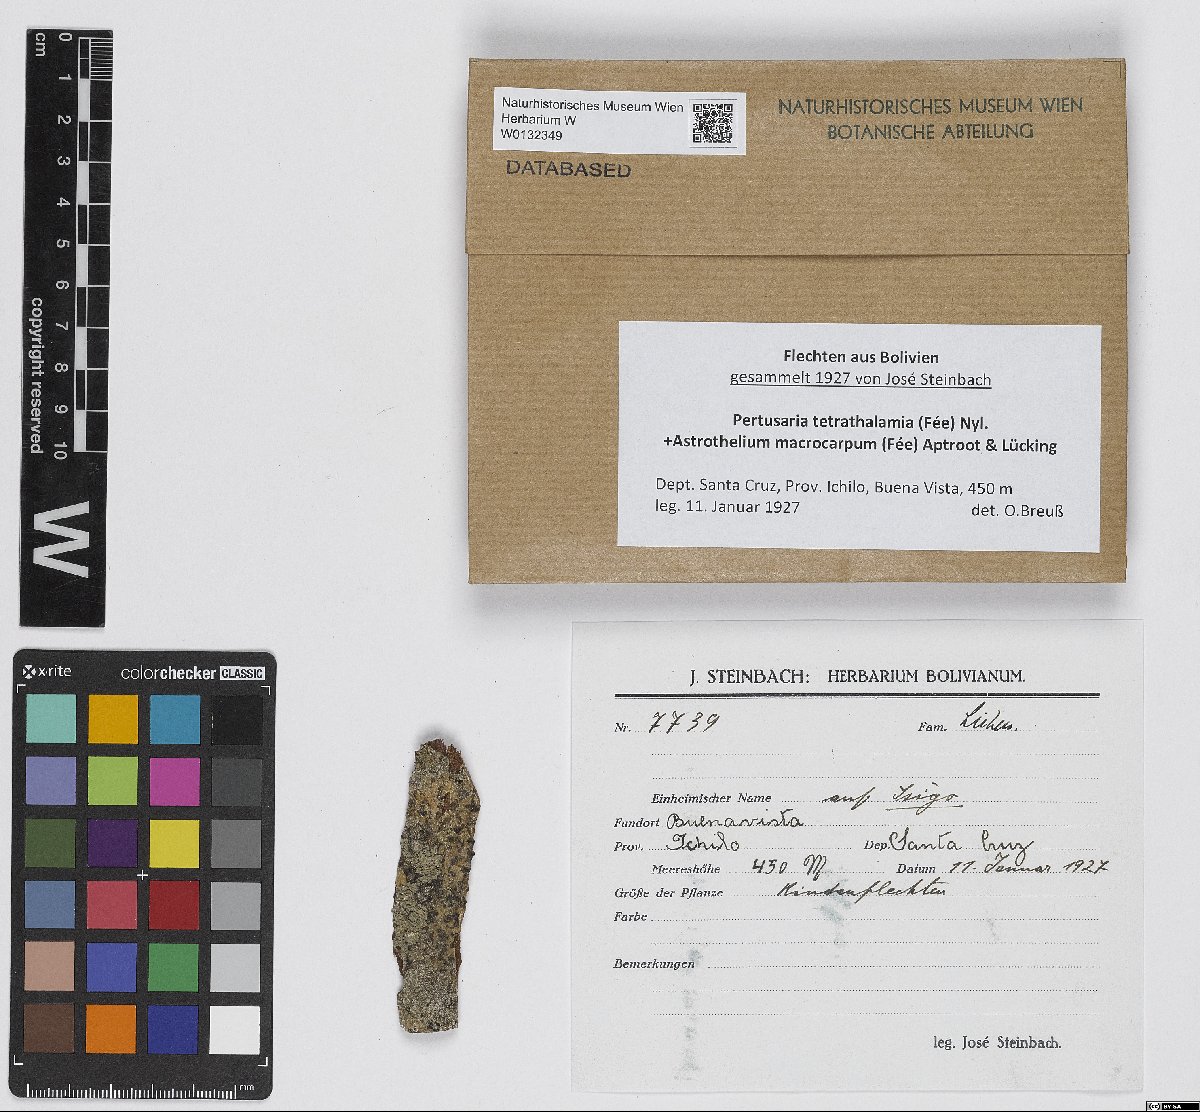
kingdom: Fungi
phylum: Ascomycota
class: Lecanoromycetes
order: Pertusariales
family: Pertusariaceae
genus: Pertusaria
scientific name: Pertusaria tetrathalamia
